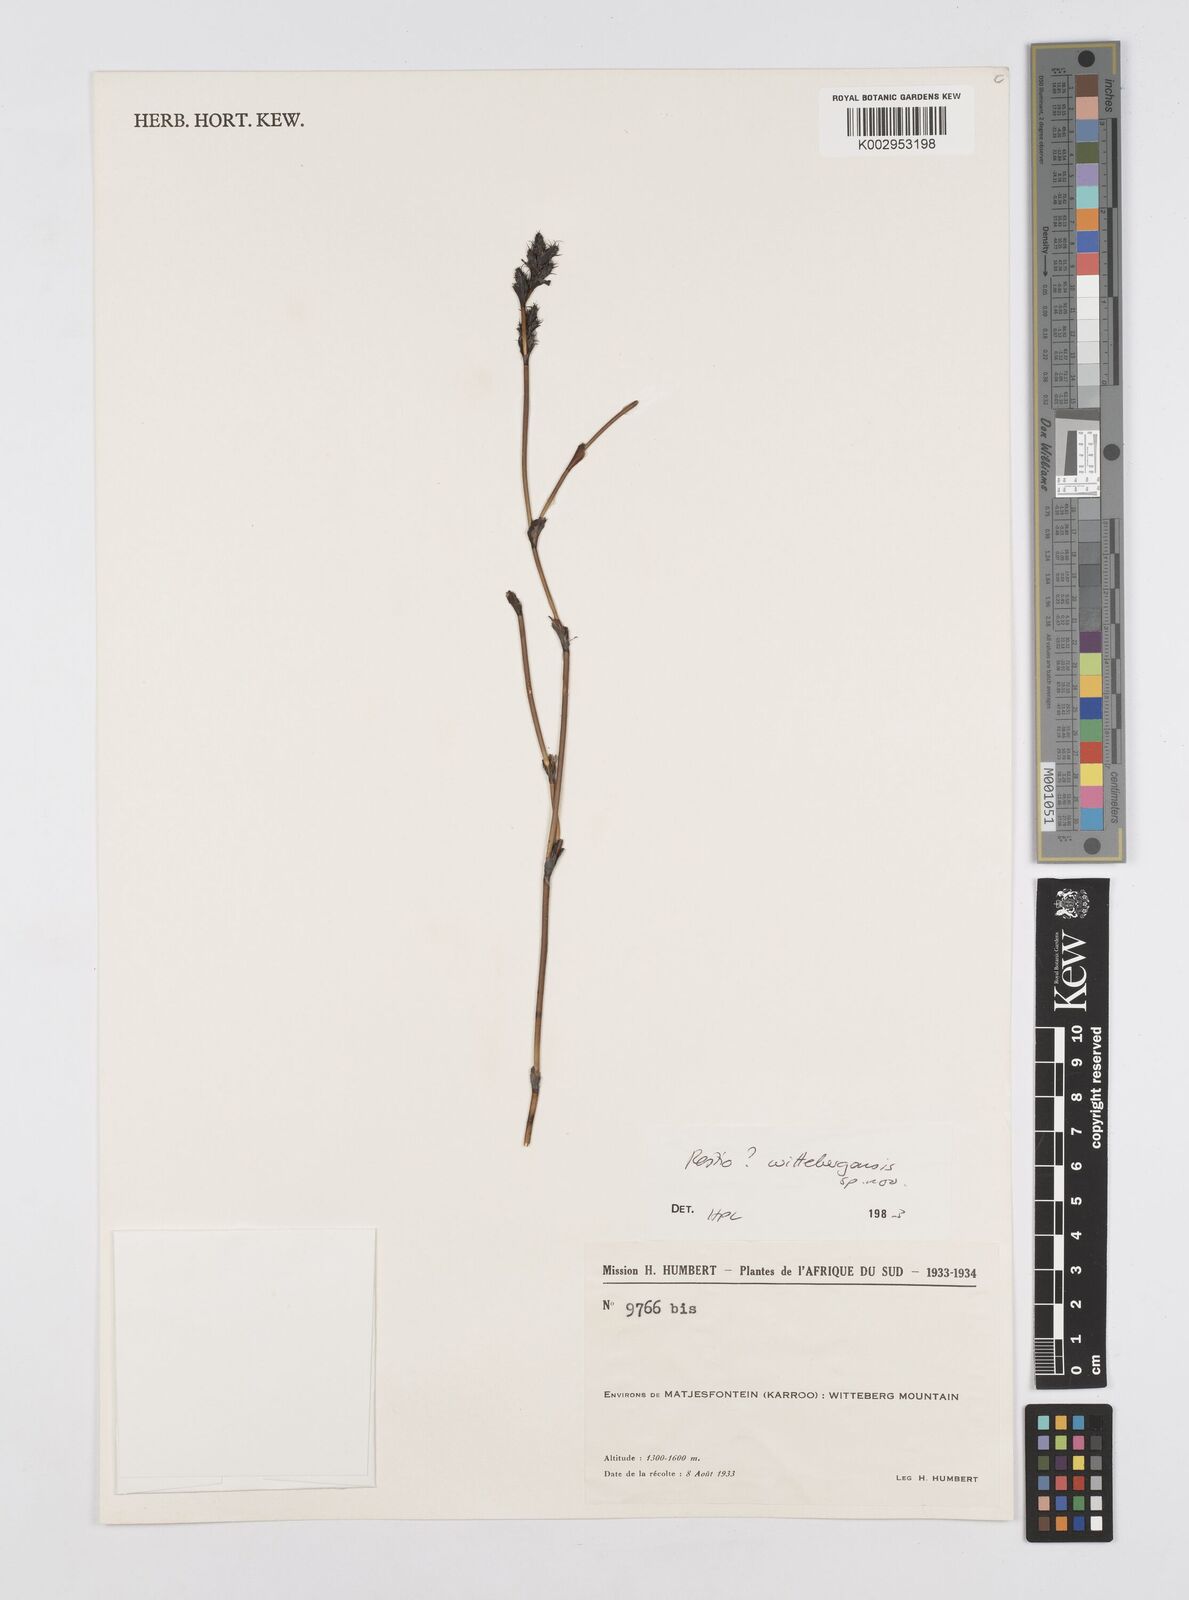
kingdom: Plantae
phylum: Tracheophyta
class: Liliopsida
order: Poales
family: Restionaceae
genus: Restio
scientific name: Restio wittebergensis
